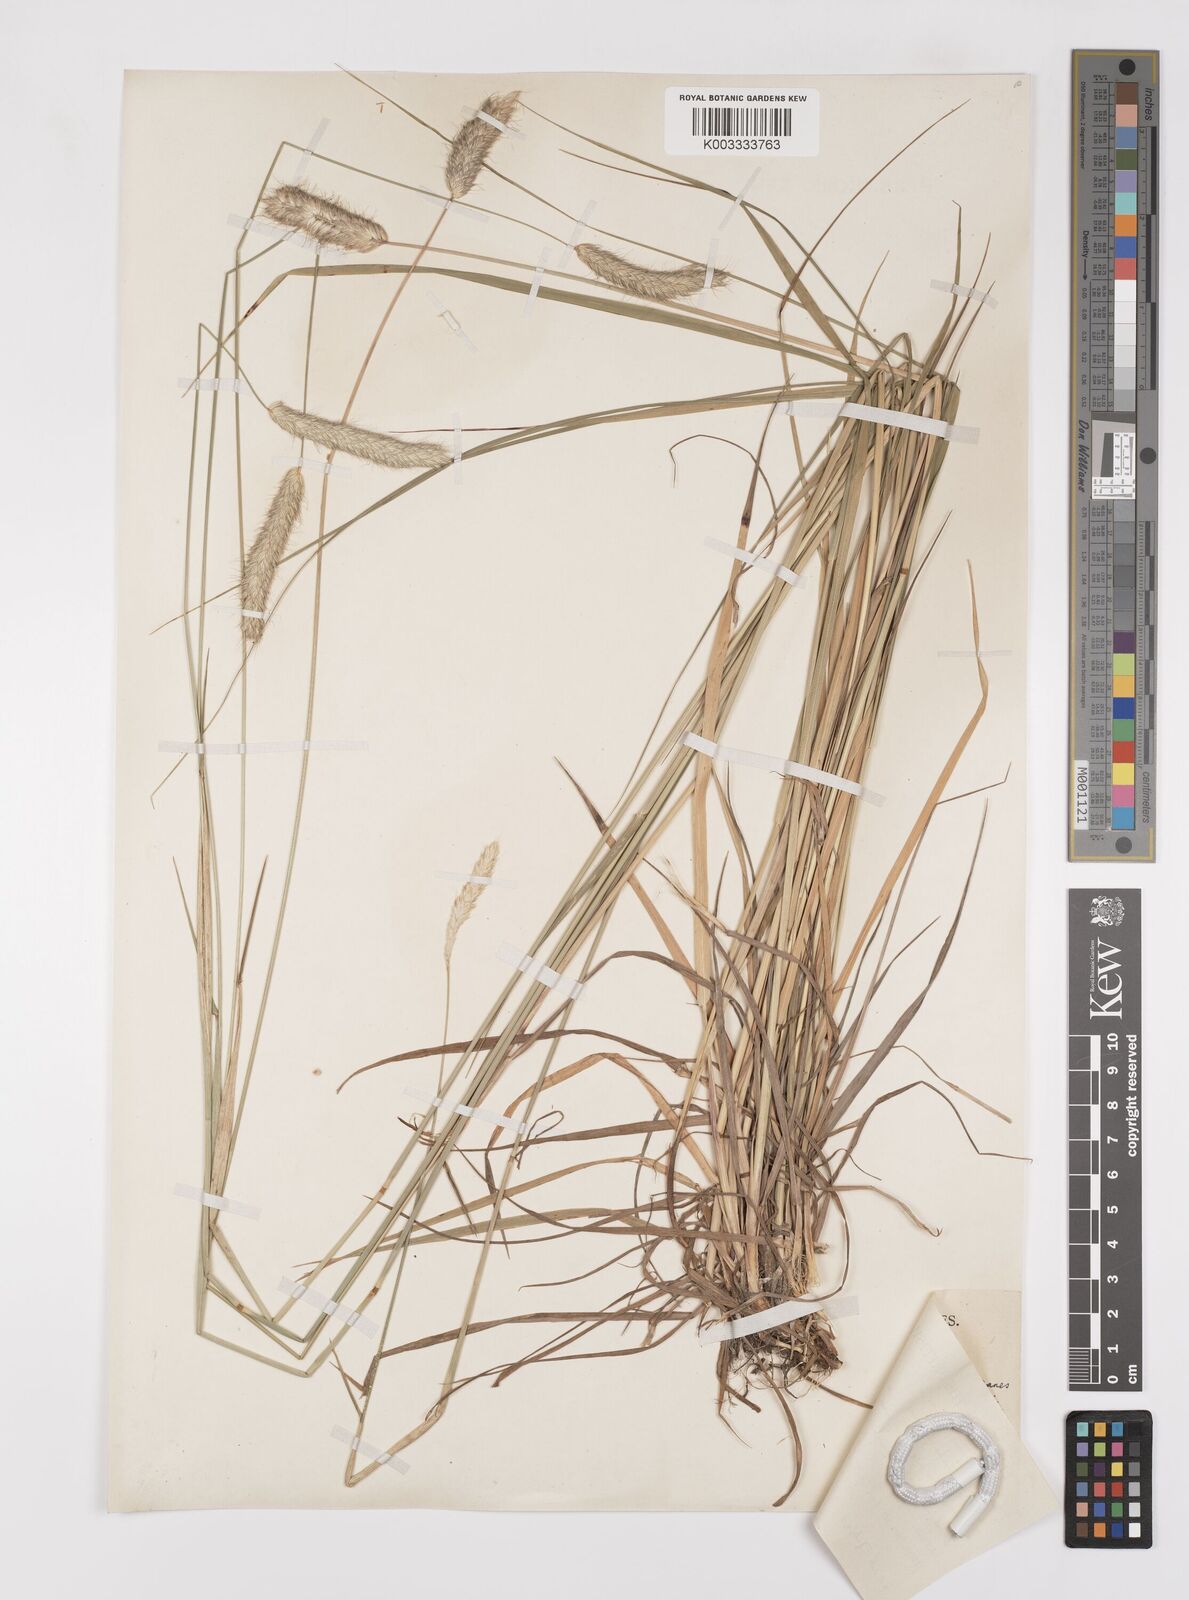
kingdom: Plantae
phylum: Tracheophyta
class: Liliopsida
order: Poales
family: Poaceae
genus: Alopecurus
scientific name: Alopecurus pratensis
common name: Meadow foxtail
